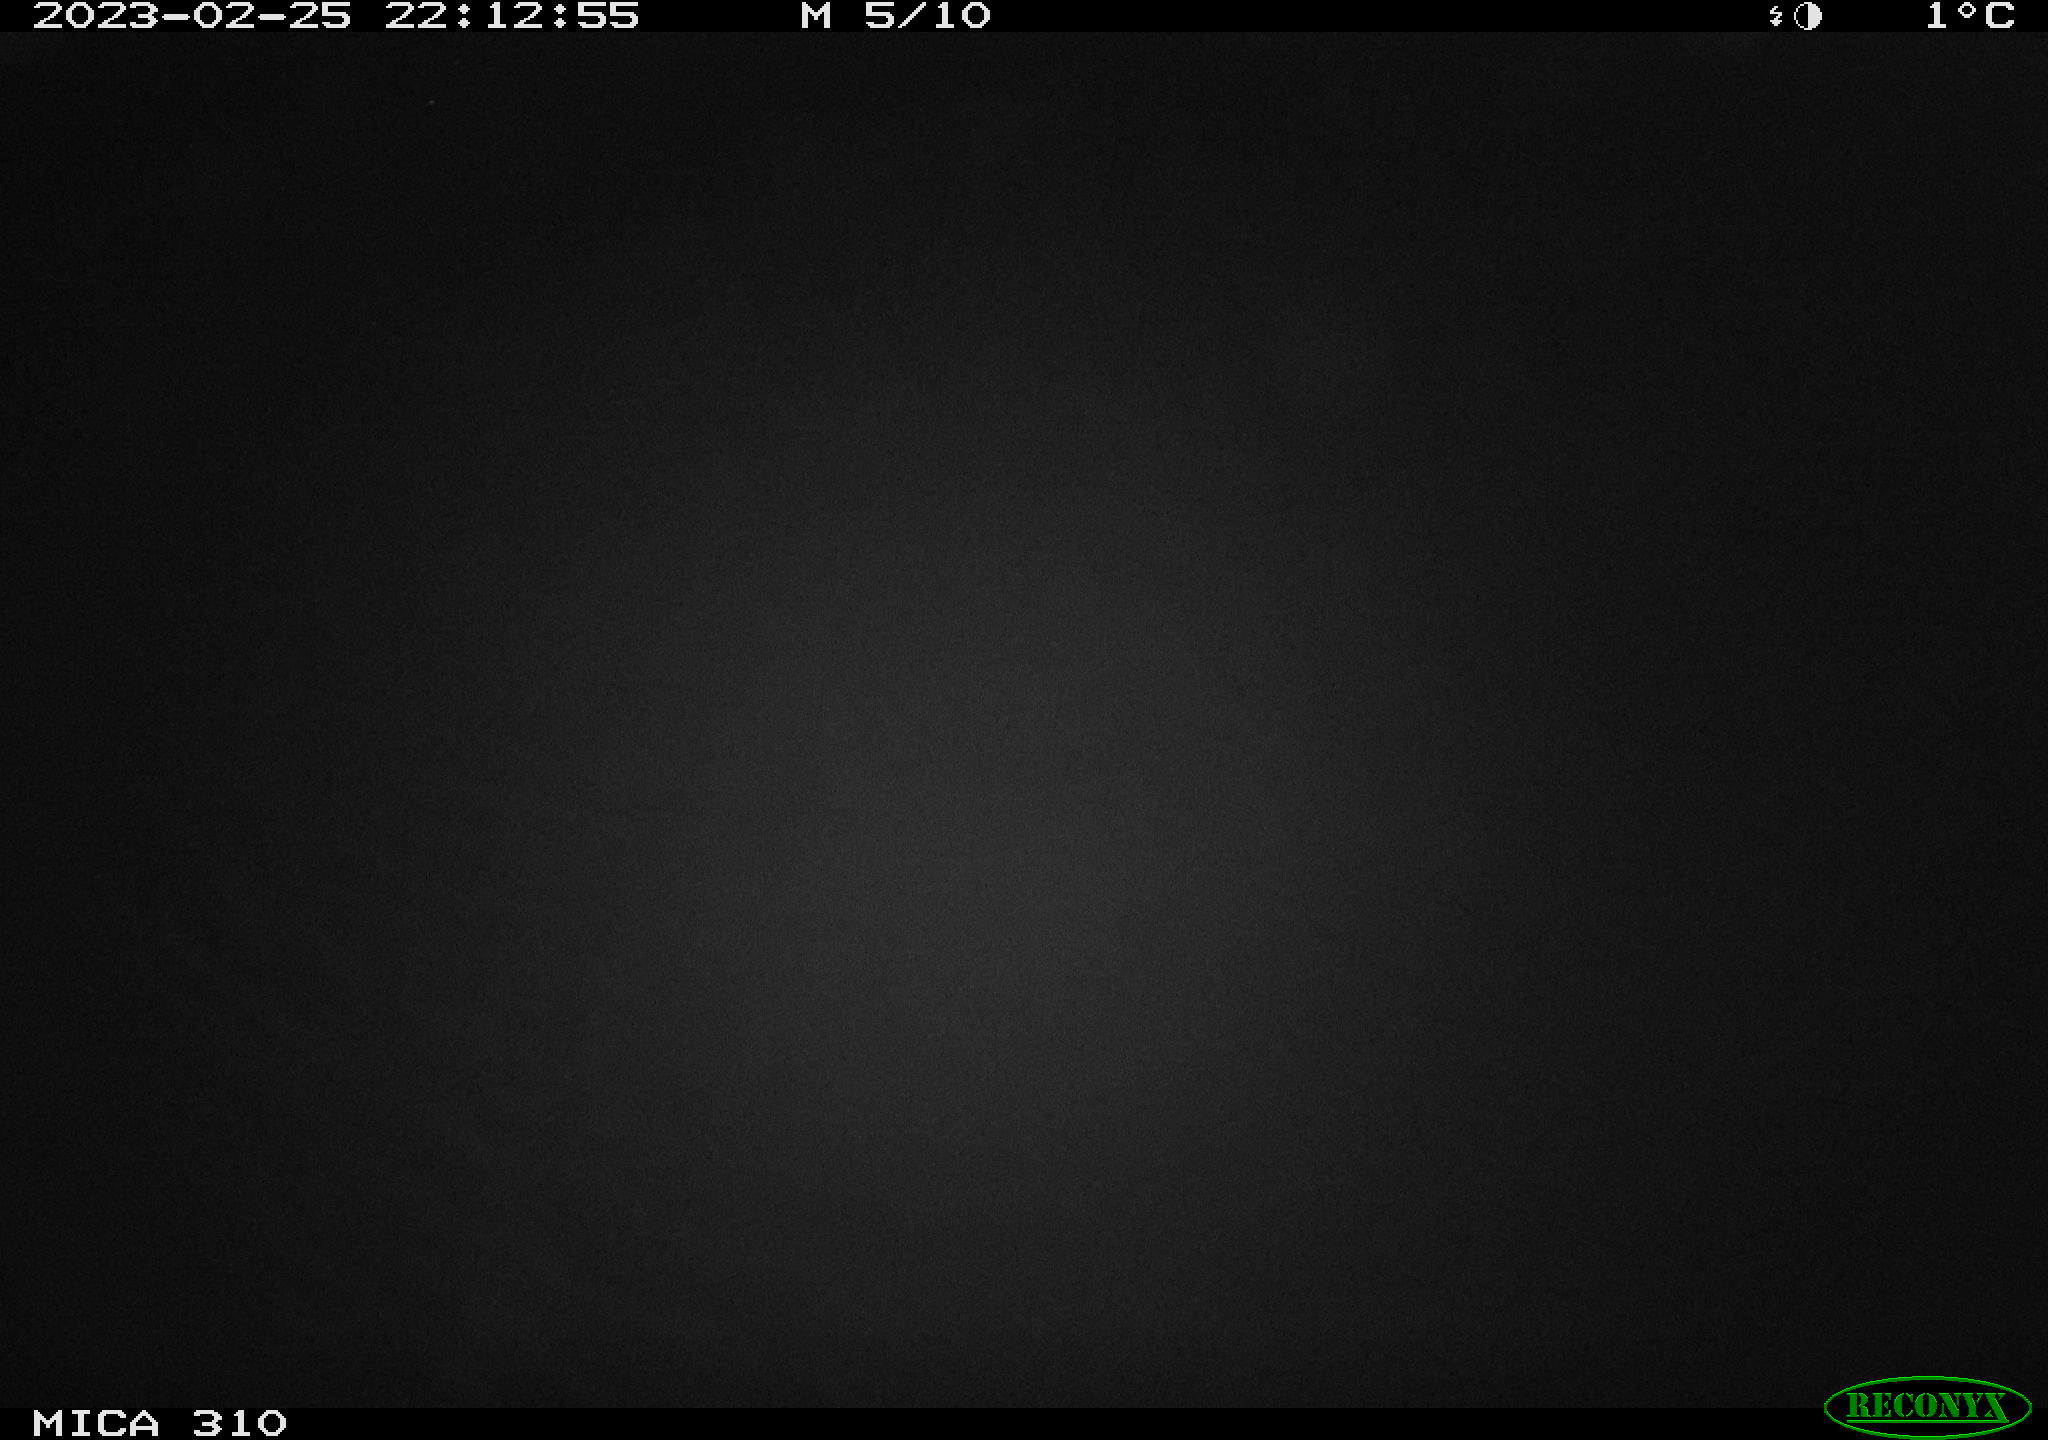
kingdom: Animalia
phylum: Chordata
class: Aves
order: Anseriformes
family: Anatidae
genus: Anas
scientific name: Anas
